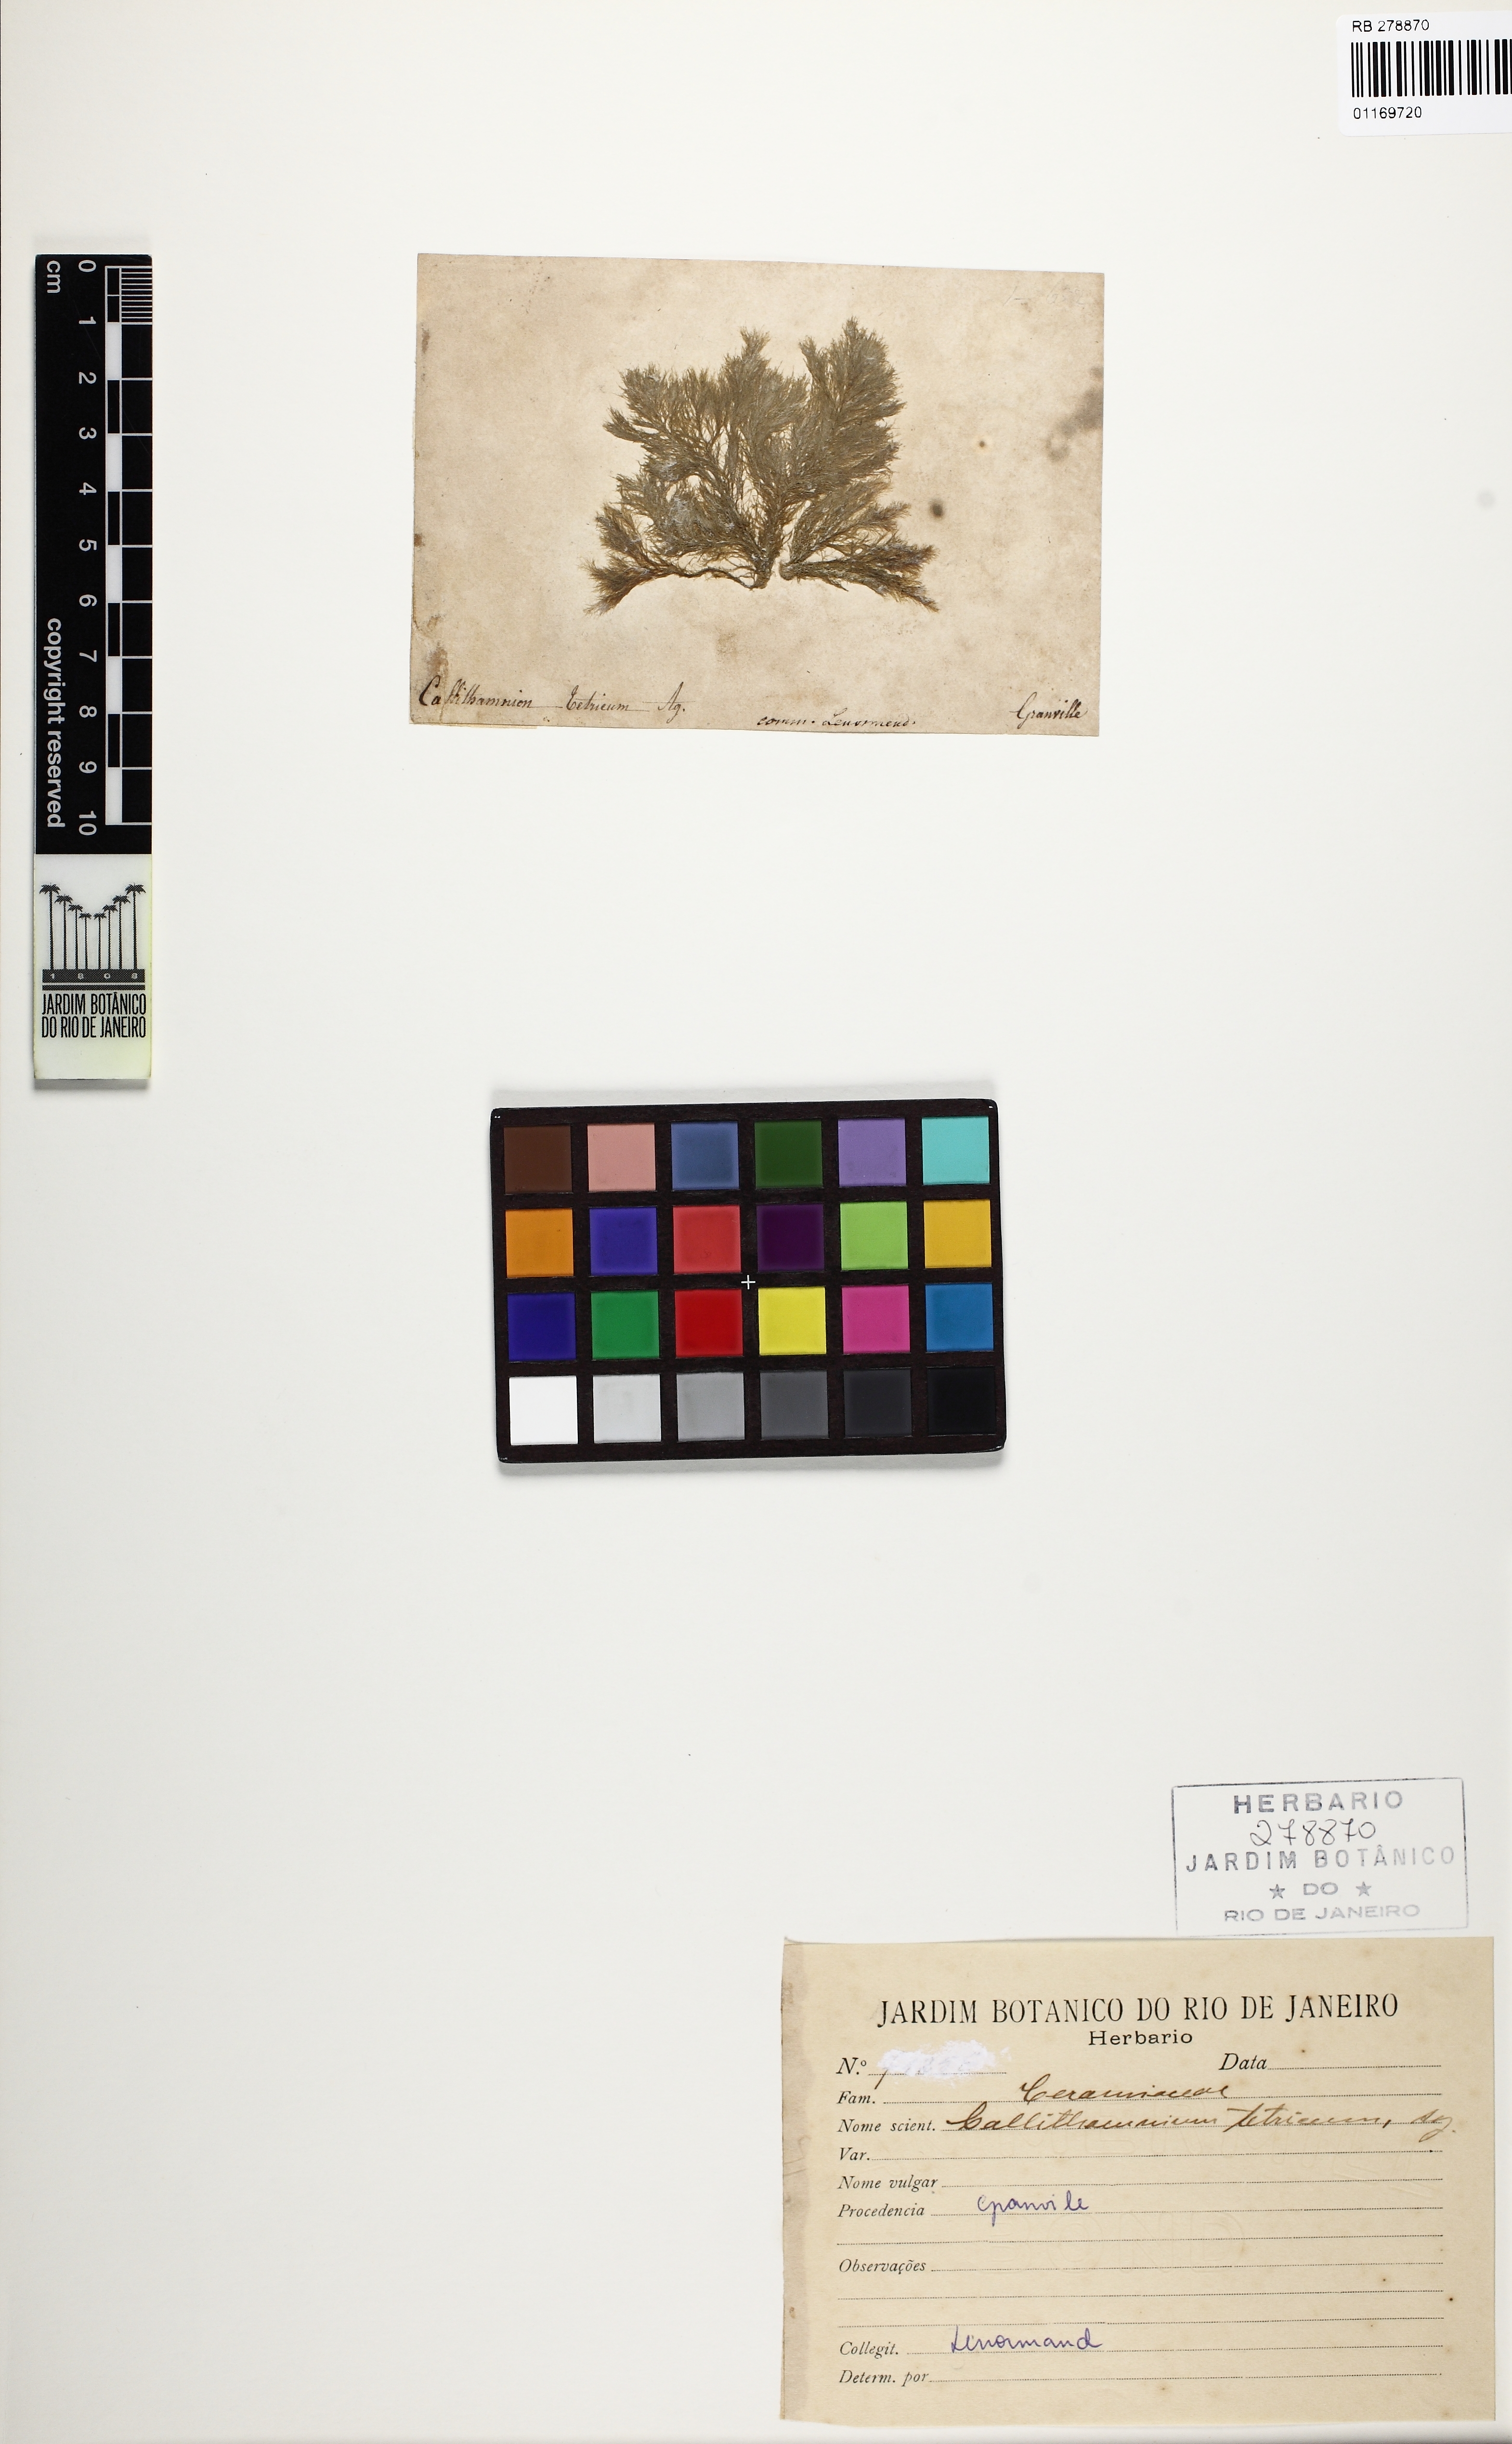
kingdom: Plantae
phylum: Rhodophyta
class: Florideophyceae
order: Ceramiales
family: Callithamniaceae
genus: Callithamnion
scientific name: Callithamnion tetricum
